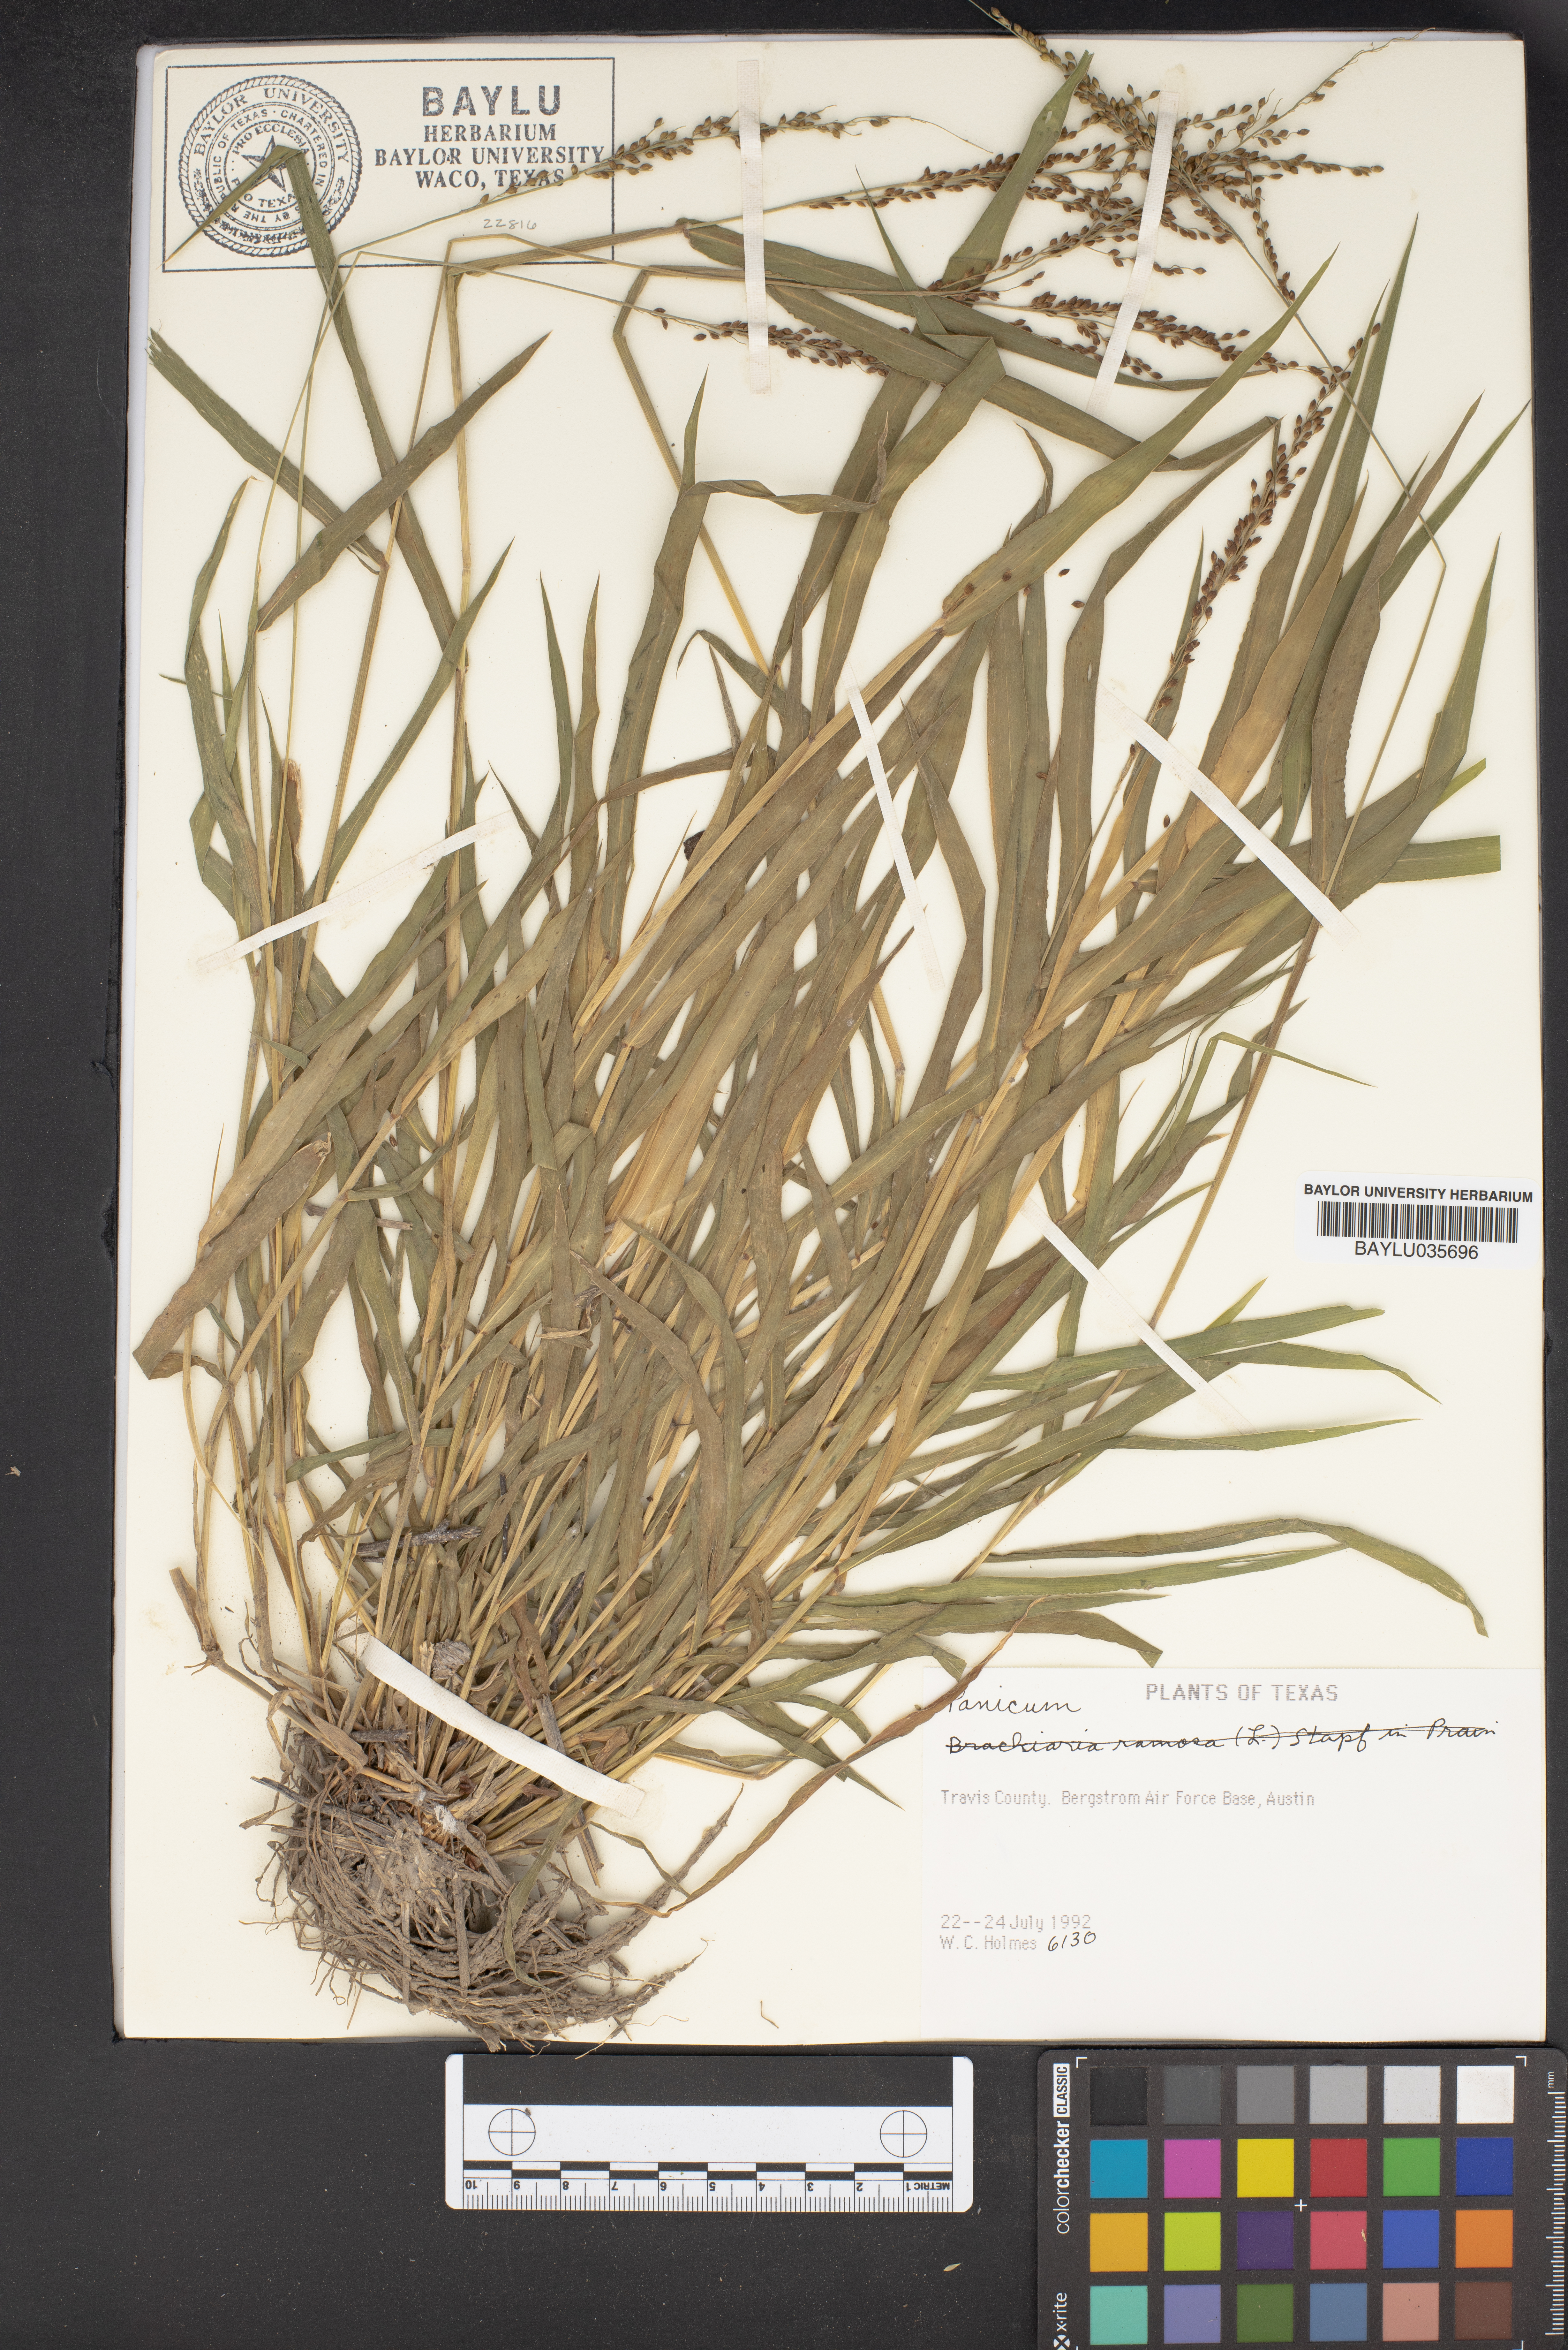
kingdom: Plantae
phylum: Tracheophyta
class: Liliopsida
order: Poales
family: Poaceae
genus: Panicum
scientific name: Panicum
